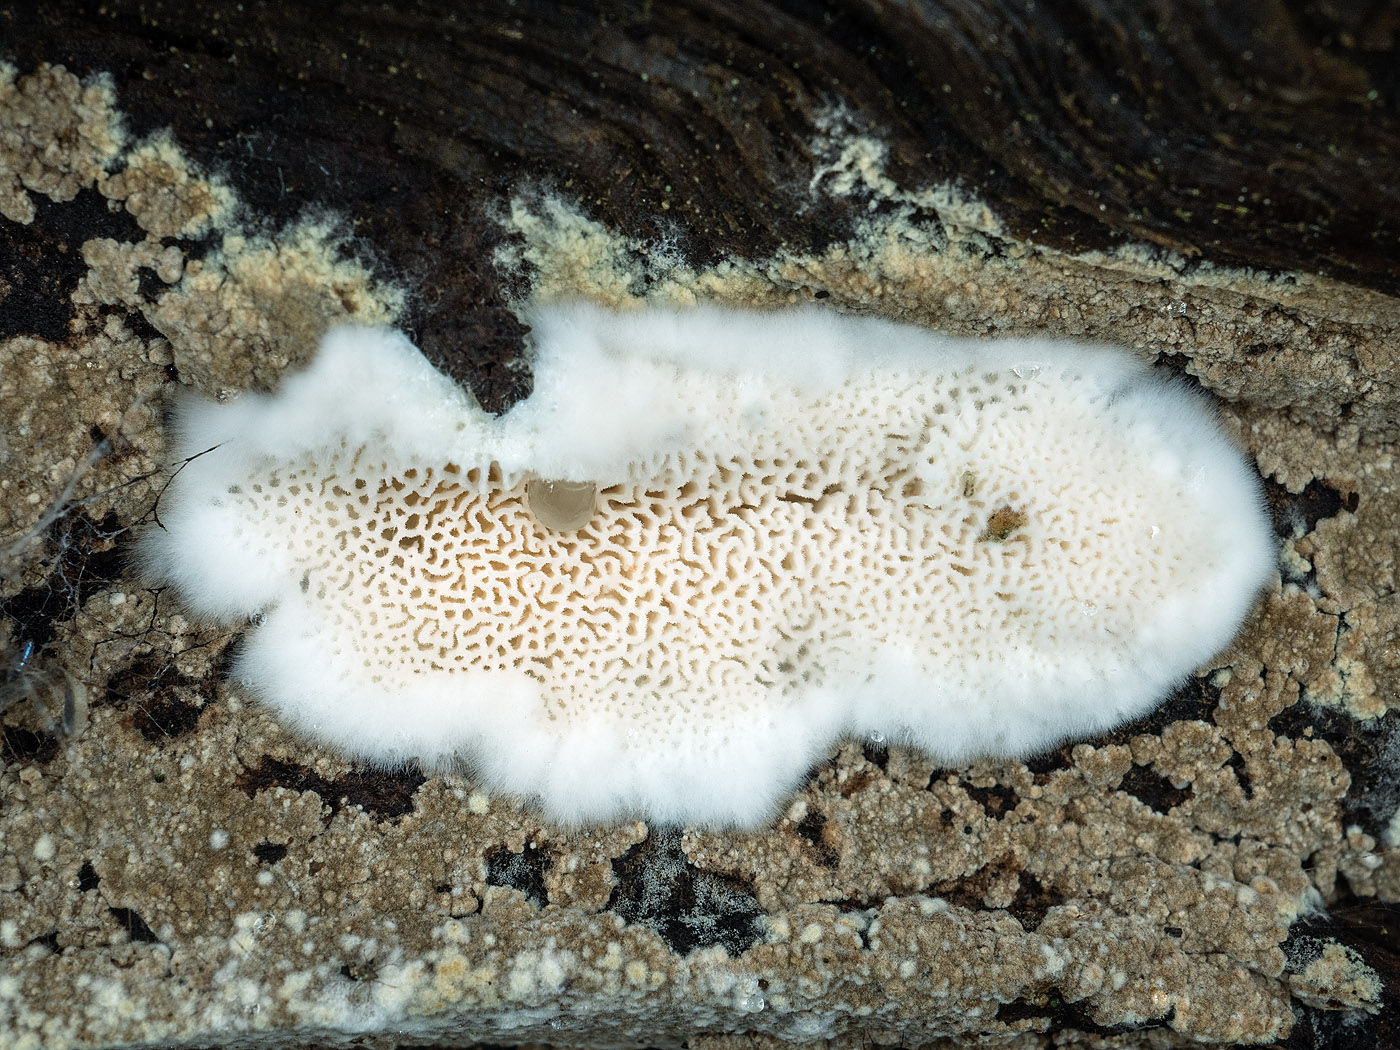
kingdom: Fungi
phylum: Basidiomycota
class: Agaricomycetes
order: Polyporales
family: Dacryobolaceae
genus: Oligoporus
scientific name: Oligoporus rennyi
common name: pudret kødporesvamp
